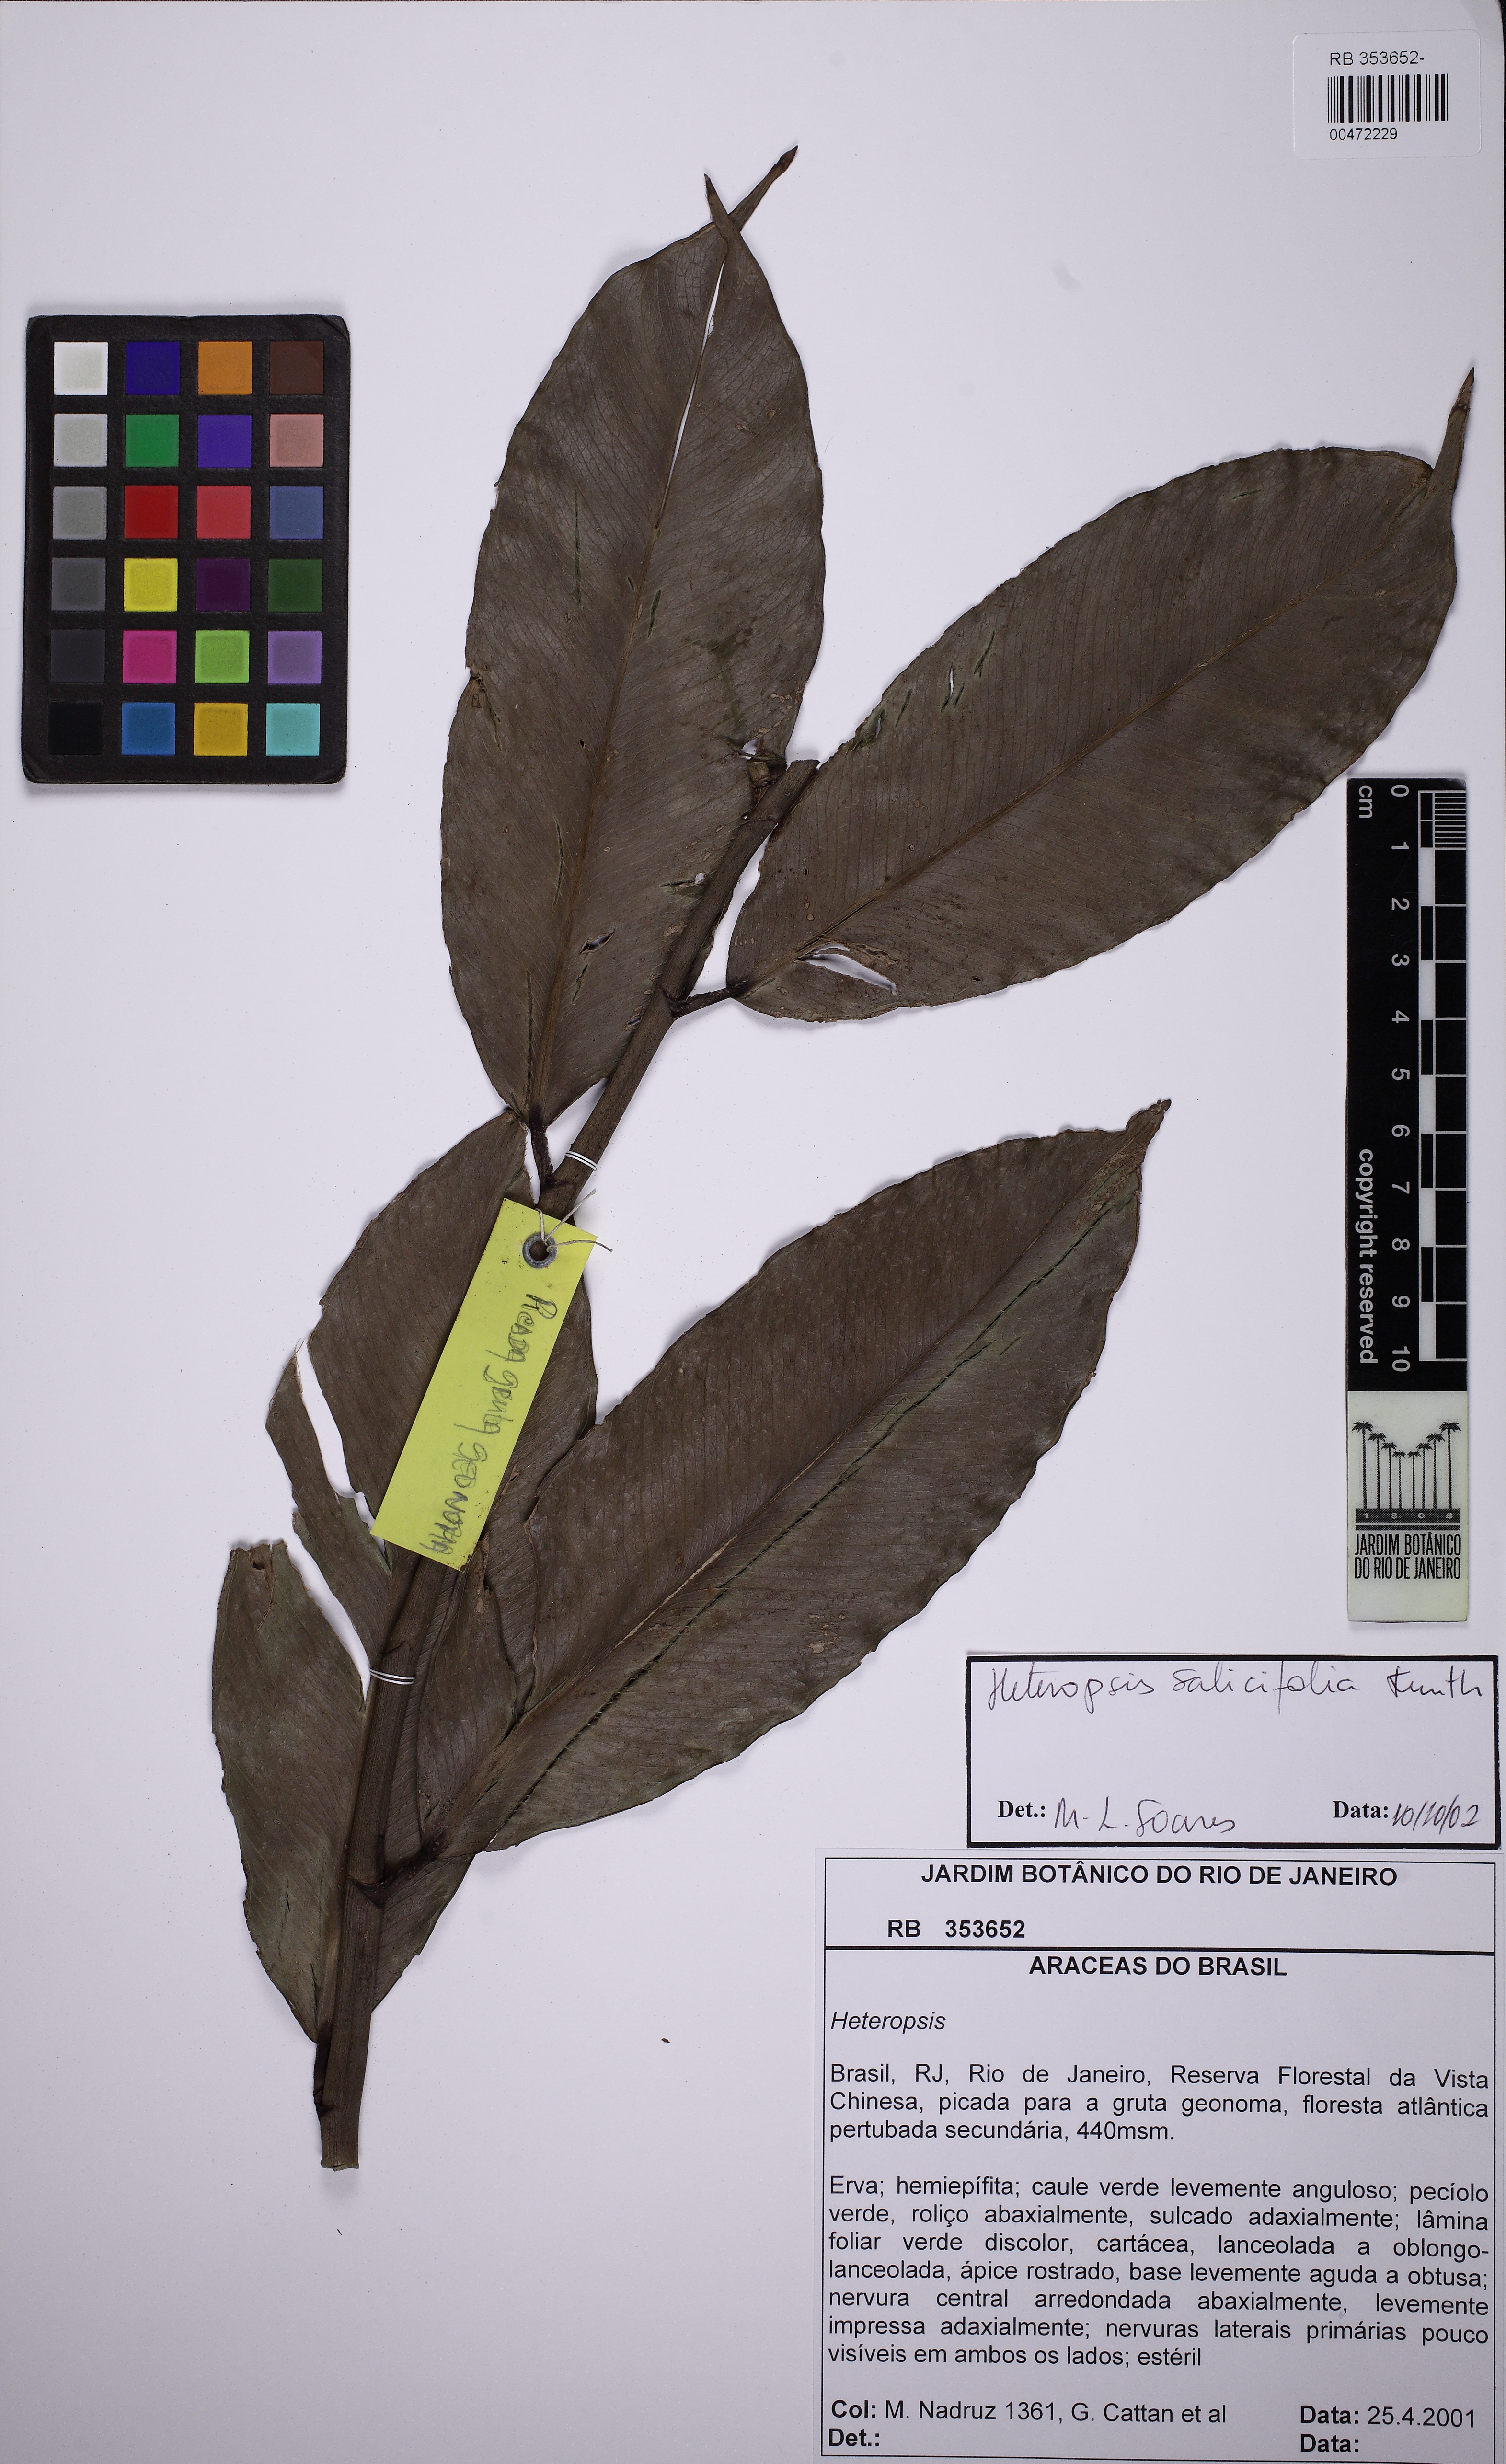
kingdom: Plantae
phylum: Tracheophyta
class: Liliopsida
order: Alismatales
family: Araceae
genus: Heteropsis
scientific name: Heteropsis salicifolia
